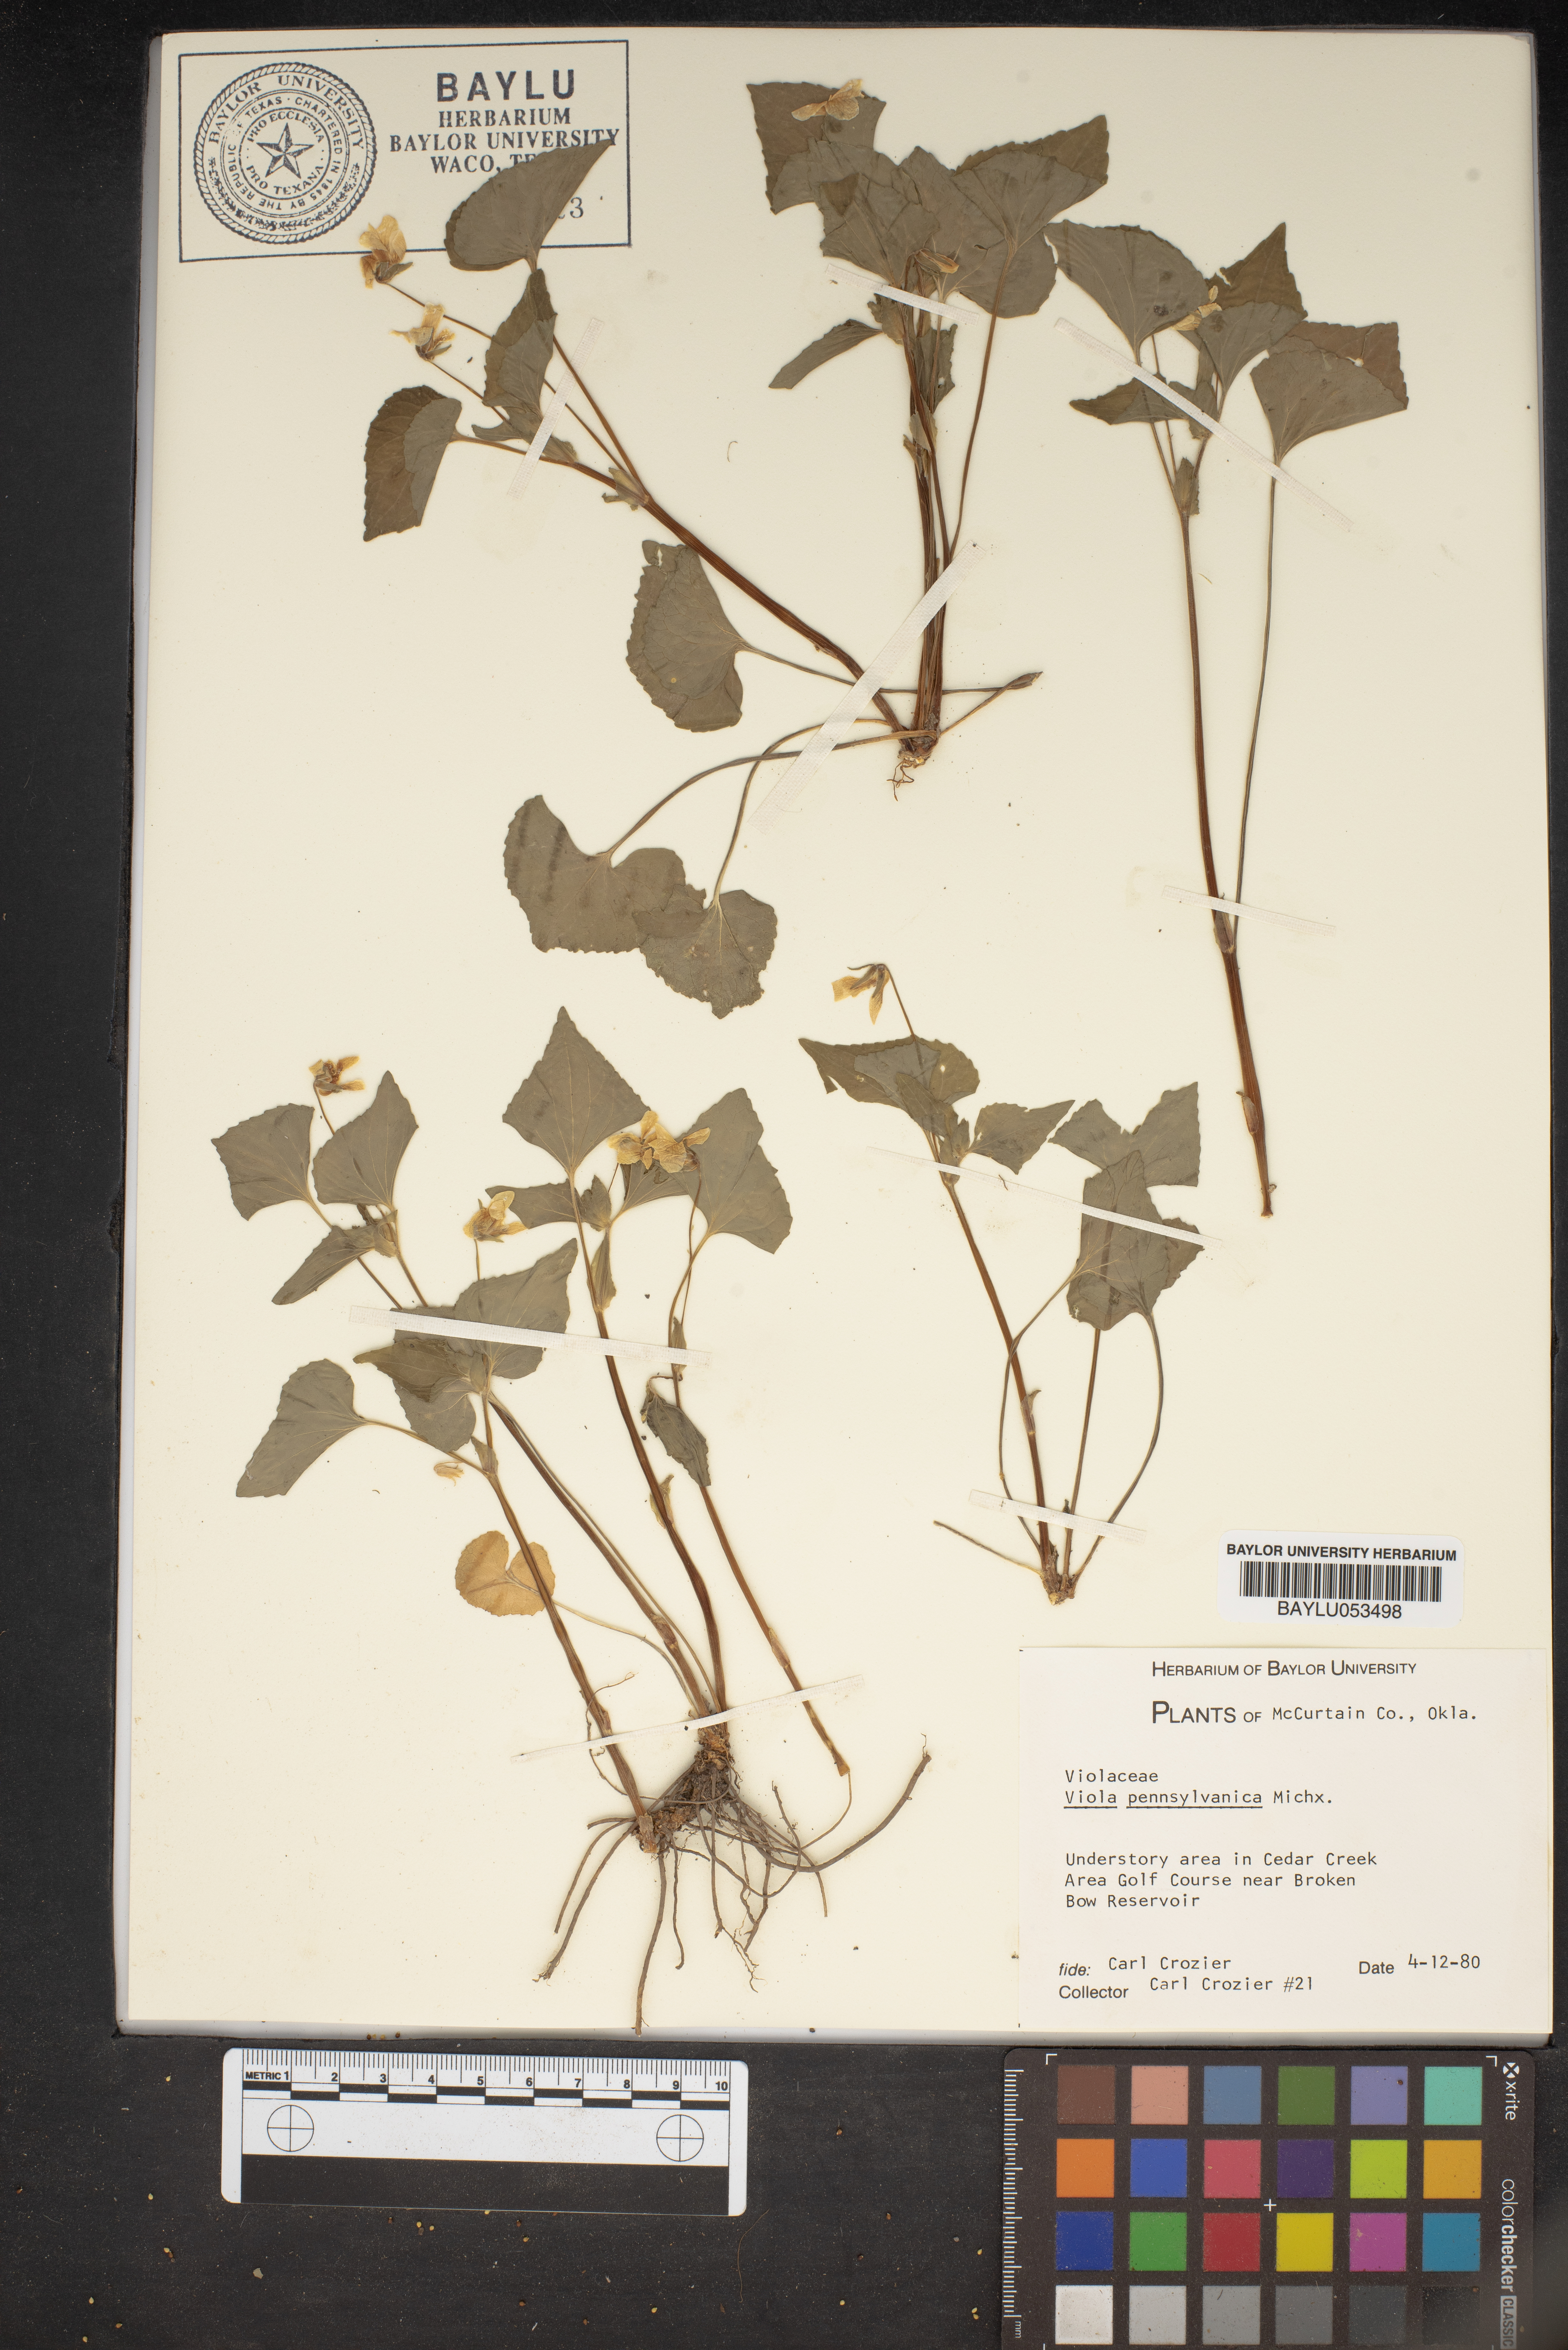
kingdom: Plantae
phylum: Tracheophyta
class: Magnoliopsida
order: Malpighiales
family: Violaceae
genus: Viola
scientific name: Viola pubescens
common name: Yellow forest violet
